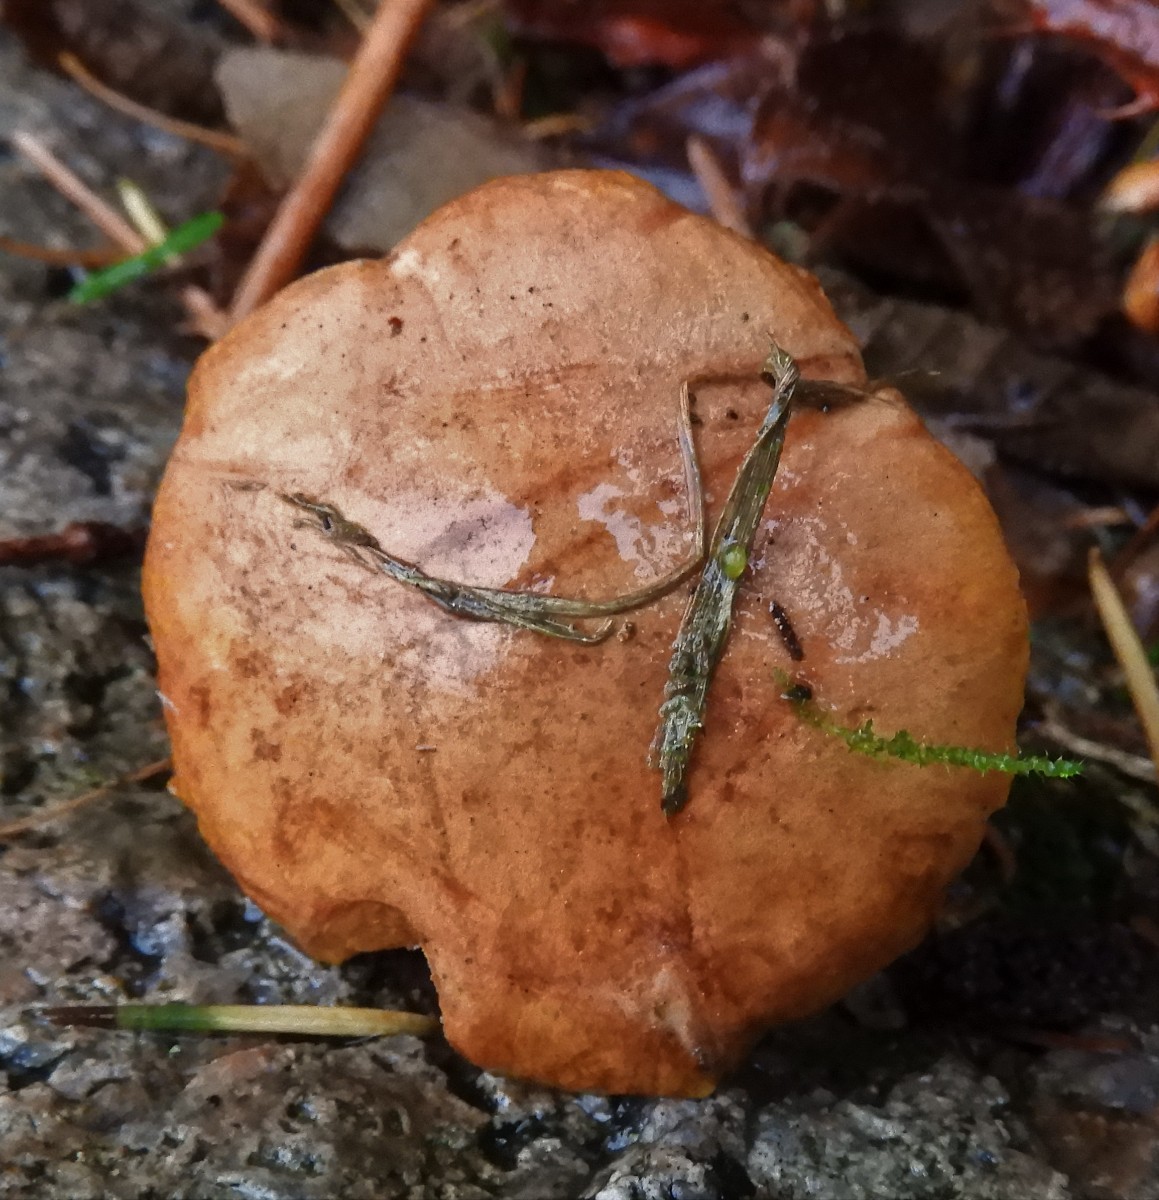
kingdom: Fungi
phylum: Basidiomycota
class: Agaricomycetes
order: Boletales
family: Boletaceae
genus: Chalciporus
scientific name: Chalciporus piperatus
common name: peberrørhat
